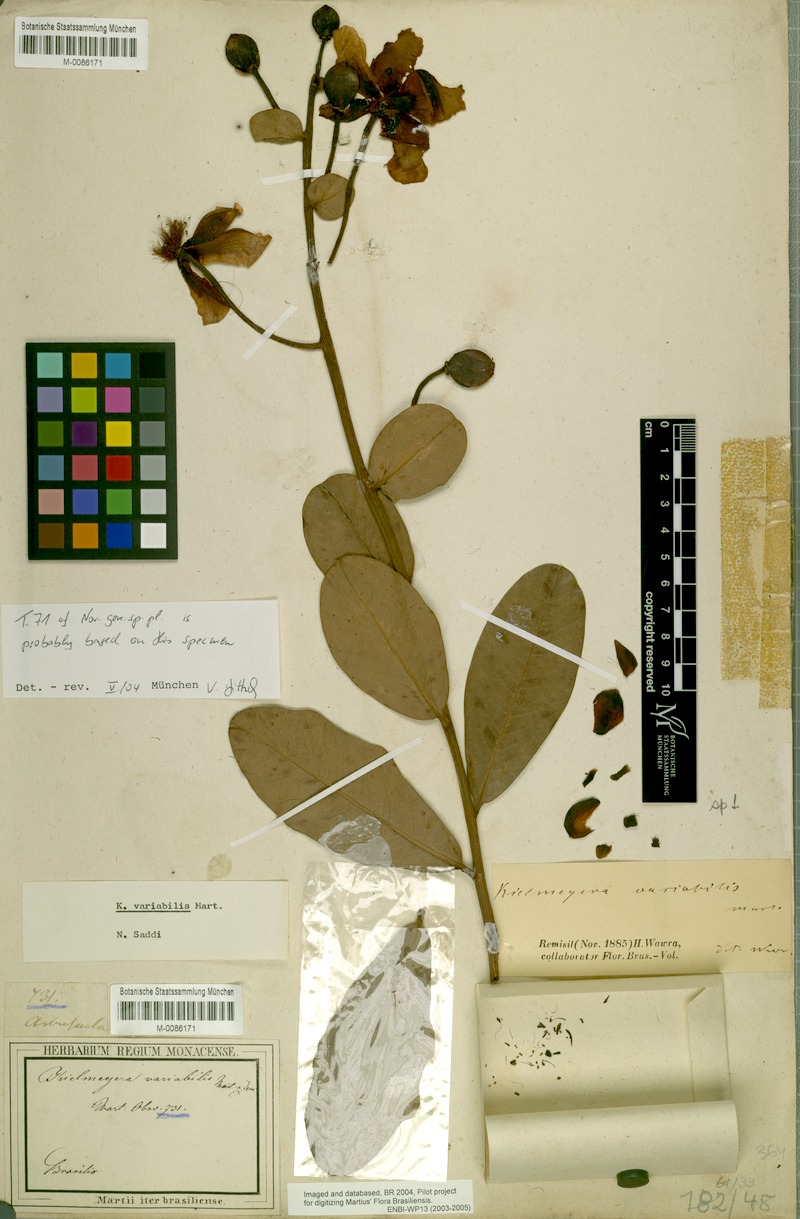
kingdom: Plantae
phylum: Tracheophyta
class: Magnoliopsida
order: Malpighiales
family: Calophyllaceae
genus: Kielmeyera
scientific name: Kielmeyera variabilis
